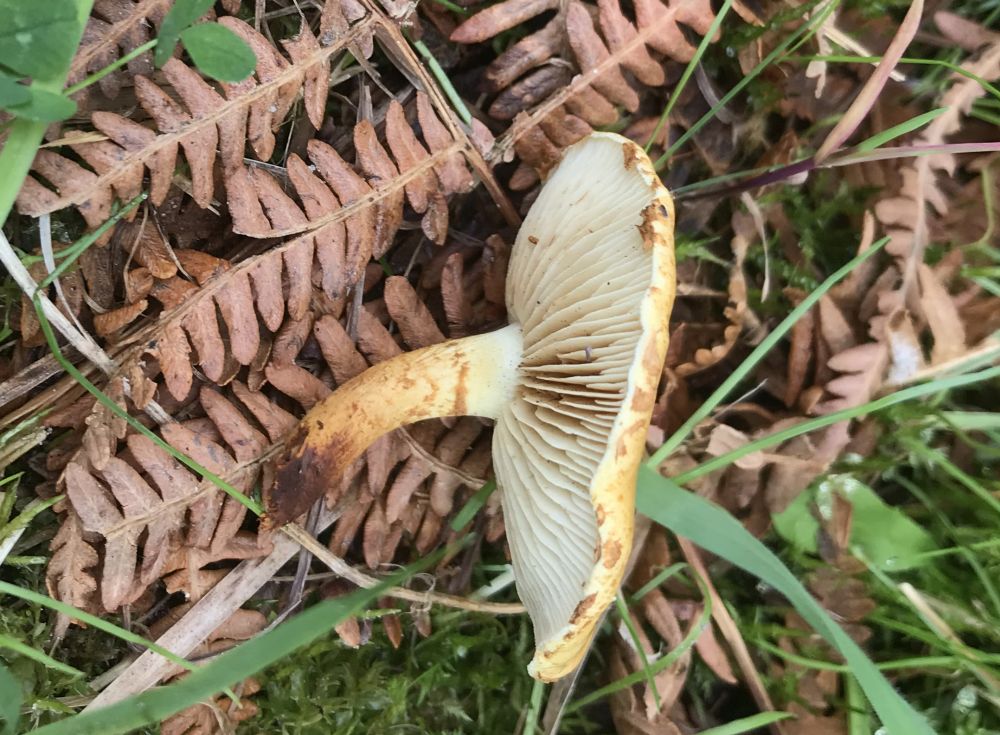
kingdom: Fungi
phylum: Basidiomycota
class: Agaricomycetes
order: Agaricales
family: Strophariaceae
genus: Pholiota
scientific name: Pholiota gummosa
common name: grøngul skælhat
